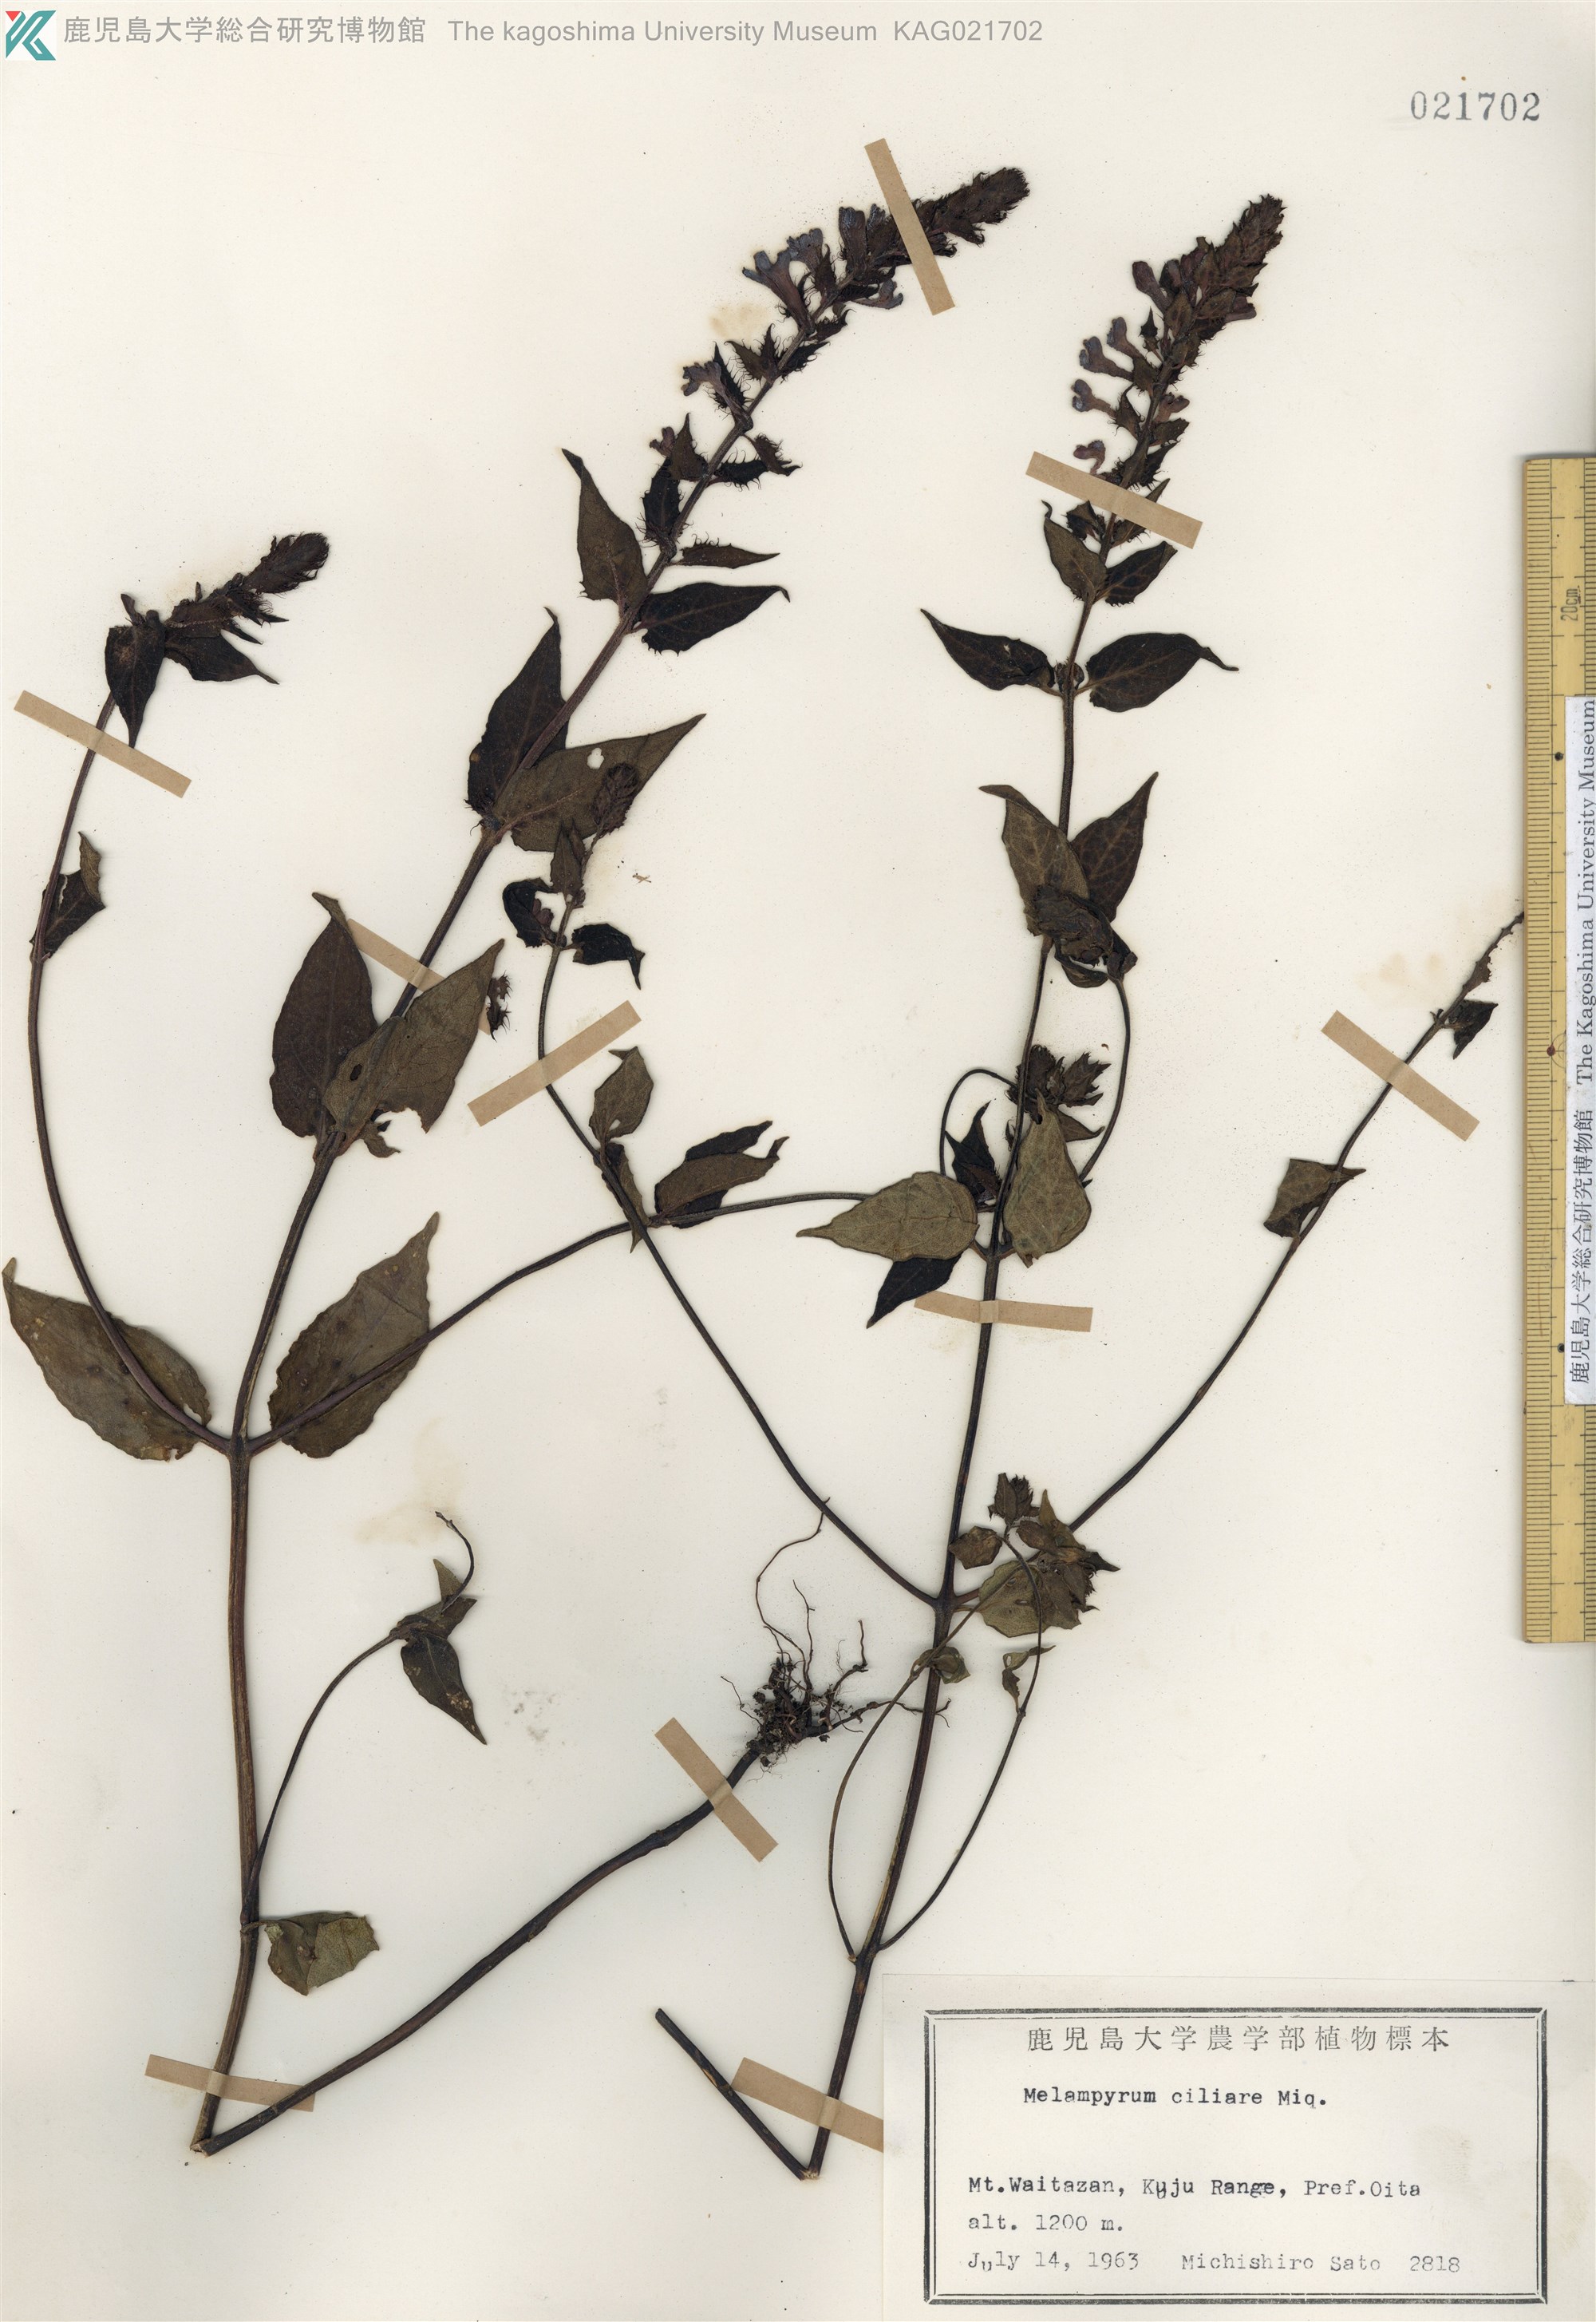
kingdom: Plantae
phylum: Tracheophyta
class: Magnoliopsida
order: Lamiales
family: Orobanchaceae
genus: Melampyrum
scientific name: Melampyrum roseum
